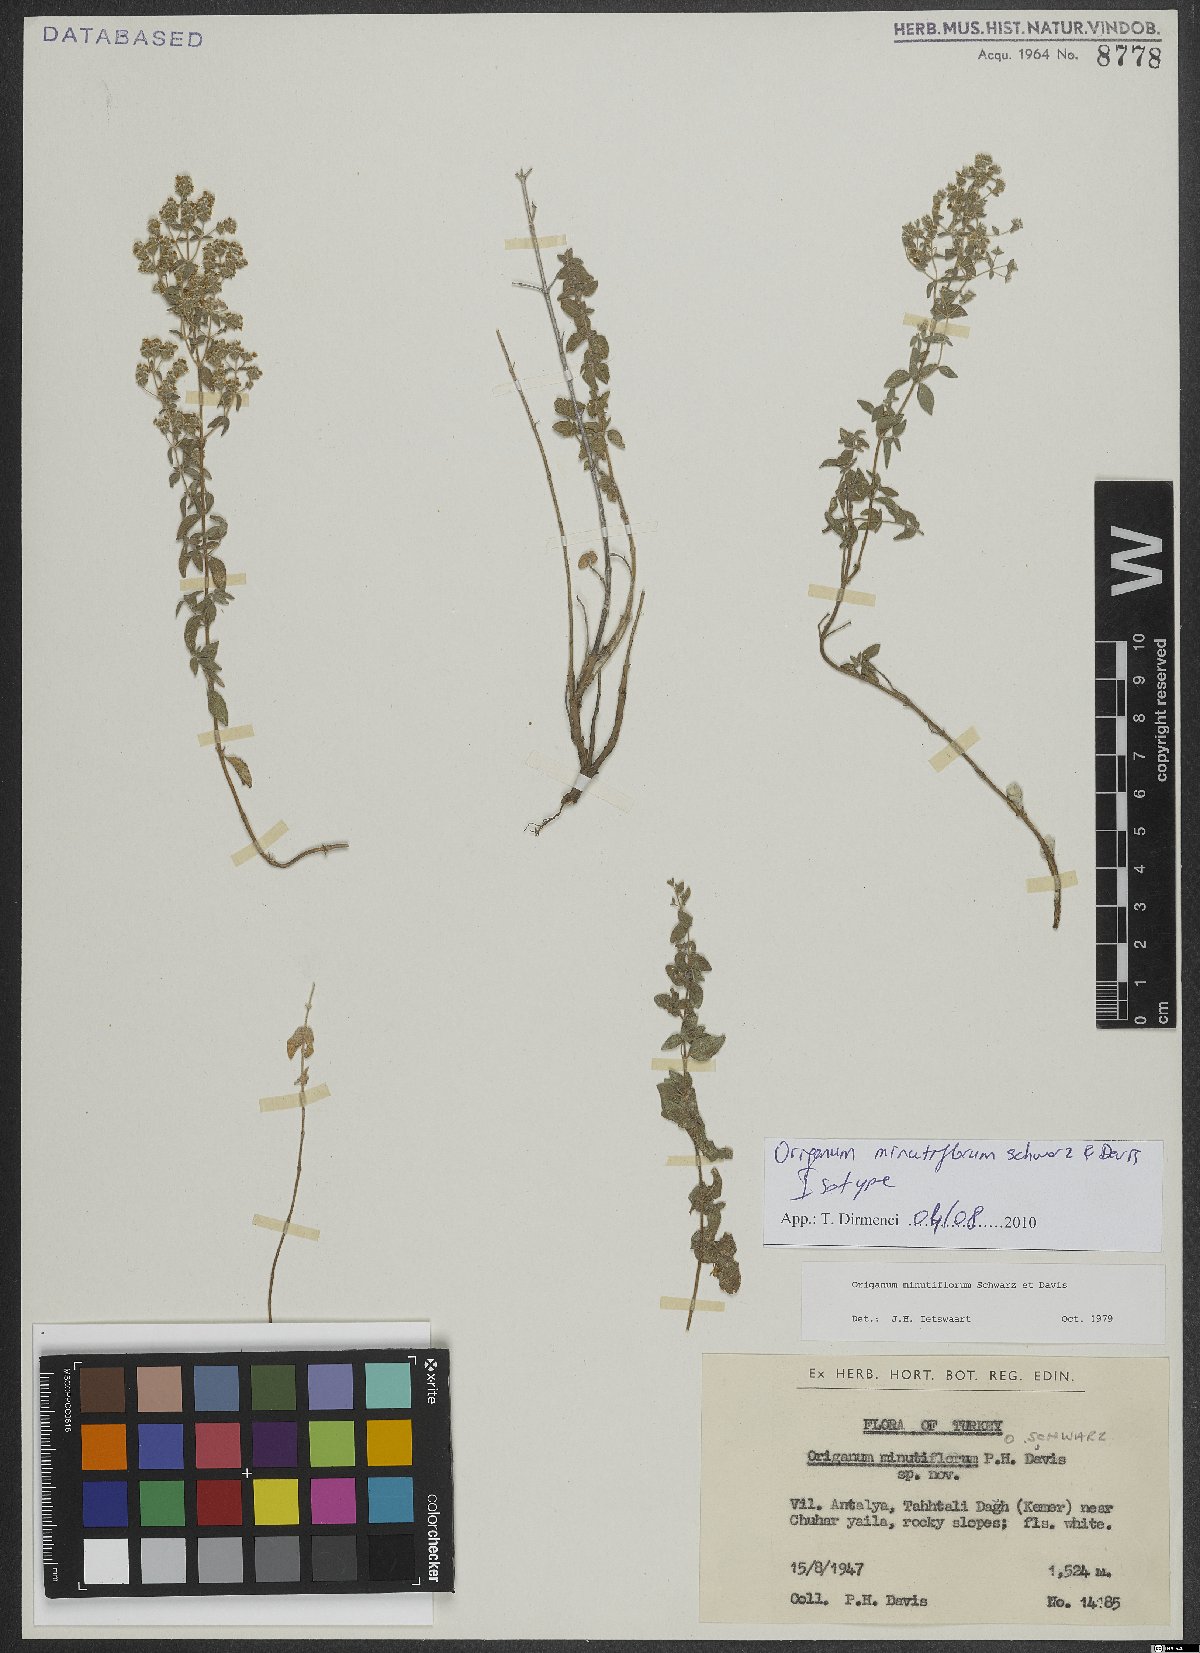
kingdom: Plantae
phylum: Tracheophyta
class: Magnoliopsida
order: Lamiales
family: Lamiaceae
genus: Origanum
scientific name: Origanum minutiflorum
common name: Spartan oregano
